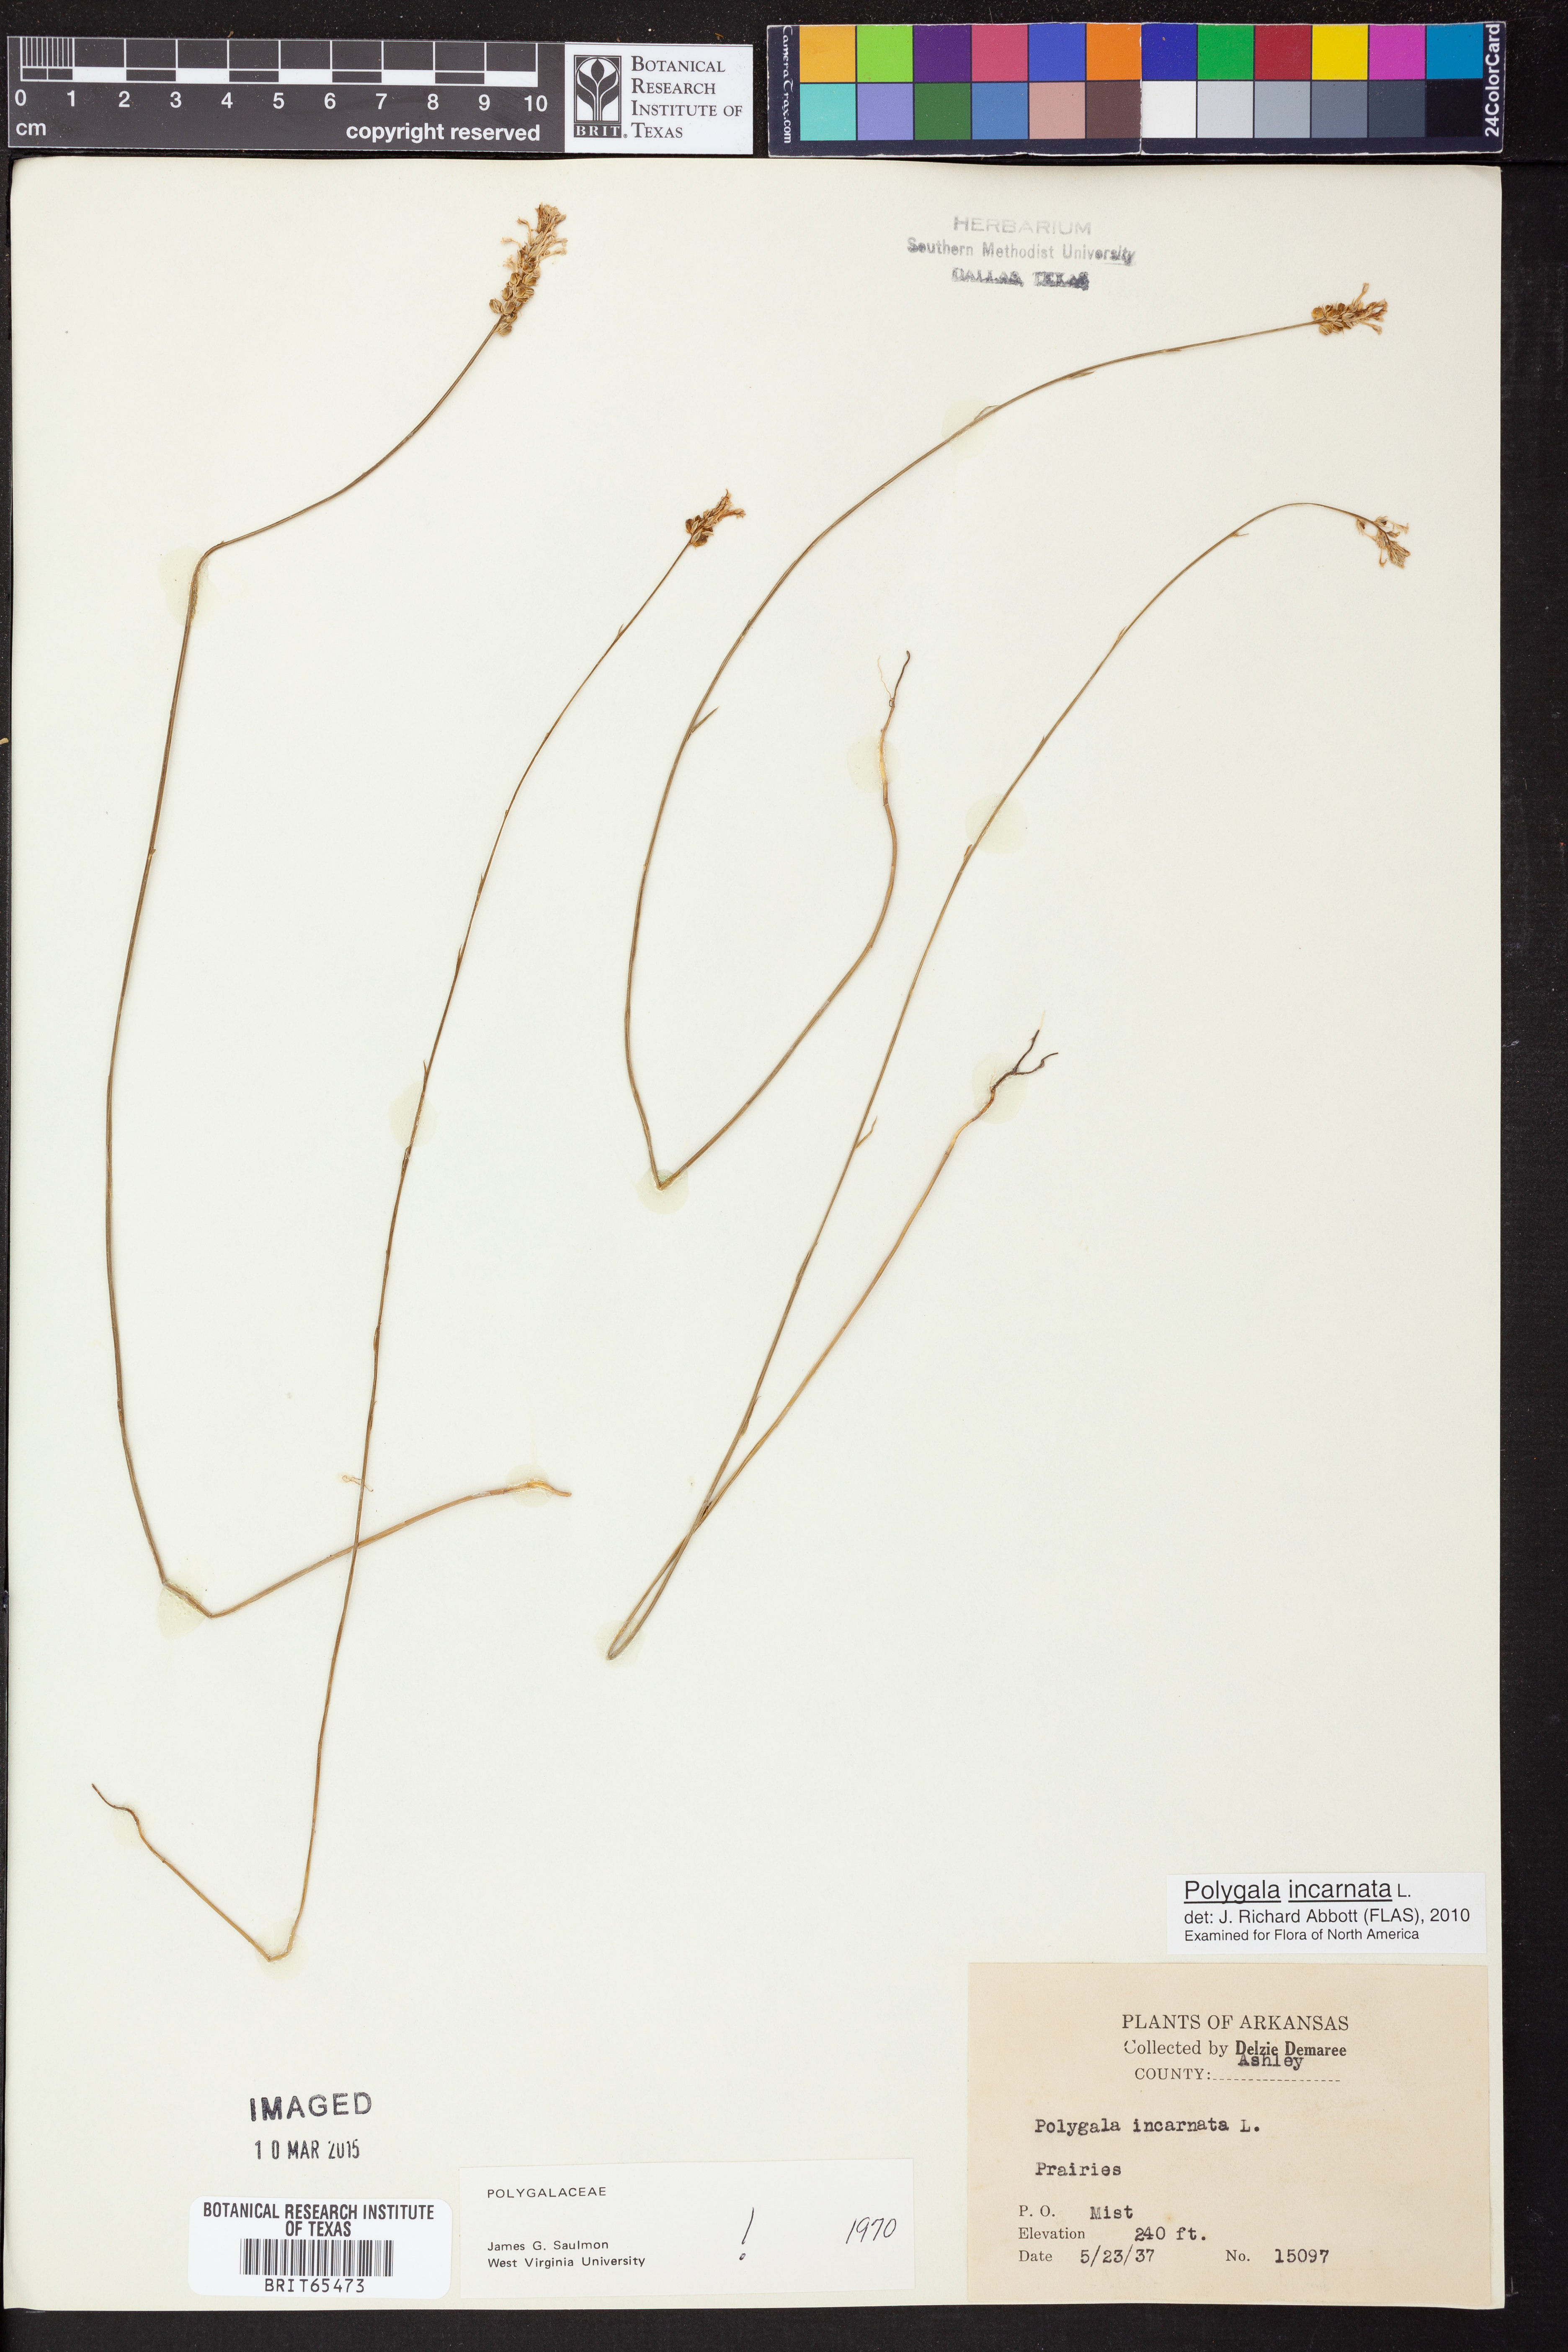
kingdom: Plantae
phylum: Tracheophyta
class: Magnoliopsida
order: Fabales
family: Polygalaceae
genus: Polygala
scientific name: Polygala incarnata
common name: Pink milkwort
